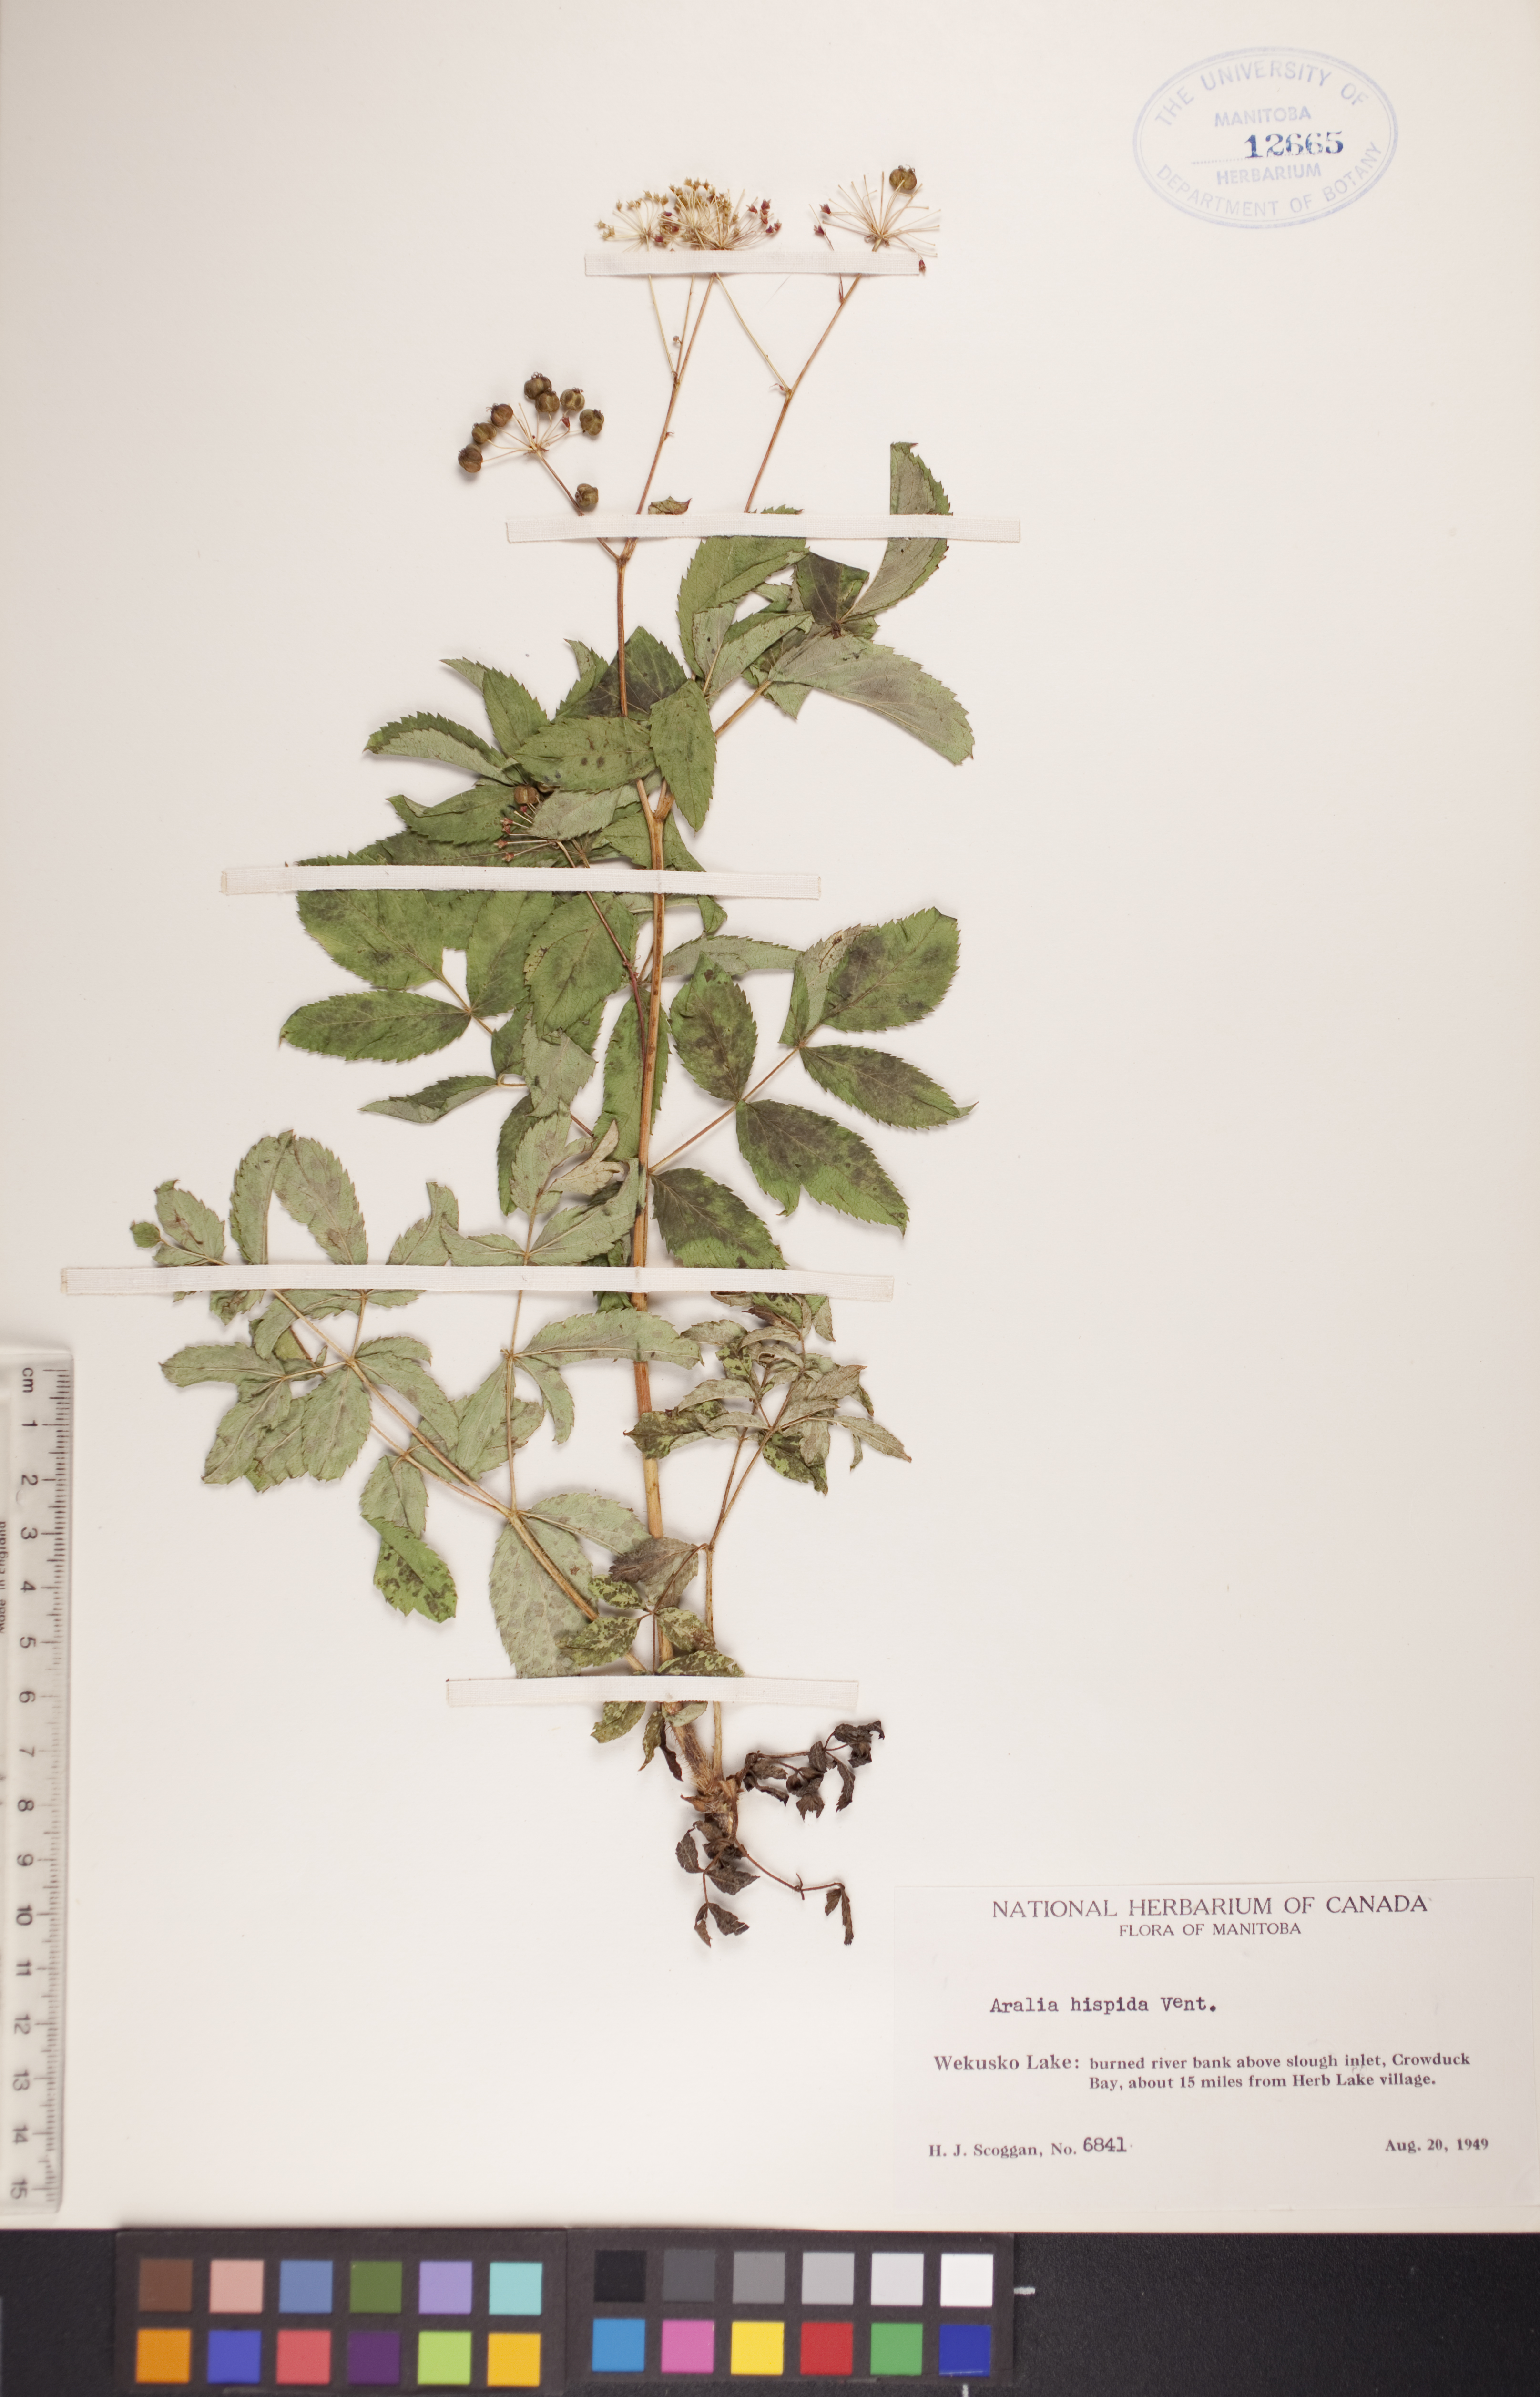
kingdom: Plantae
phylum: Tracheophyta
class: Magnoliopsida
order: Apiales
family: Araliaceae
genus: Aralia
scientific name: Aralia hispida
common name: Bristly sarsaparilla
